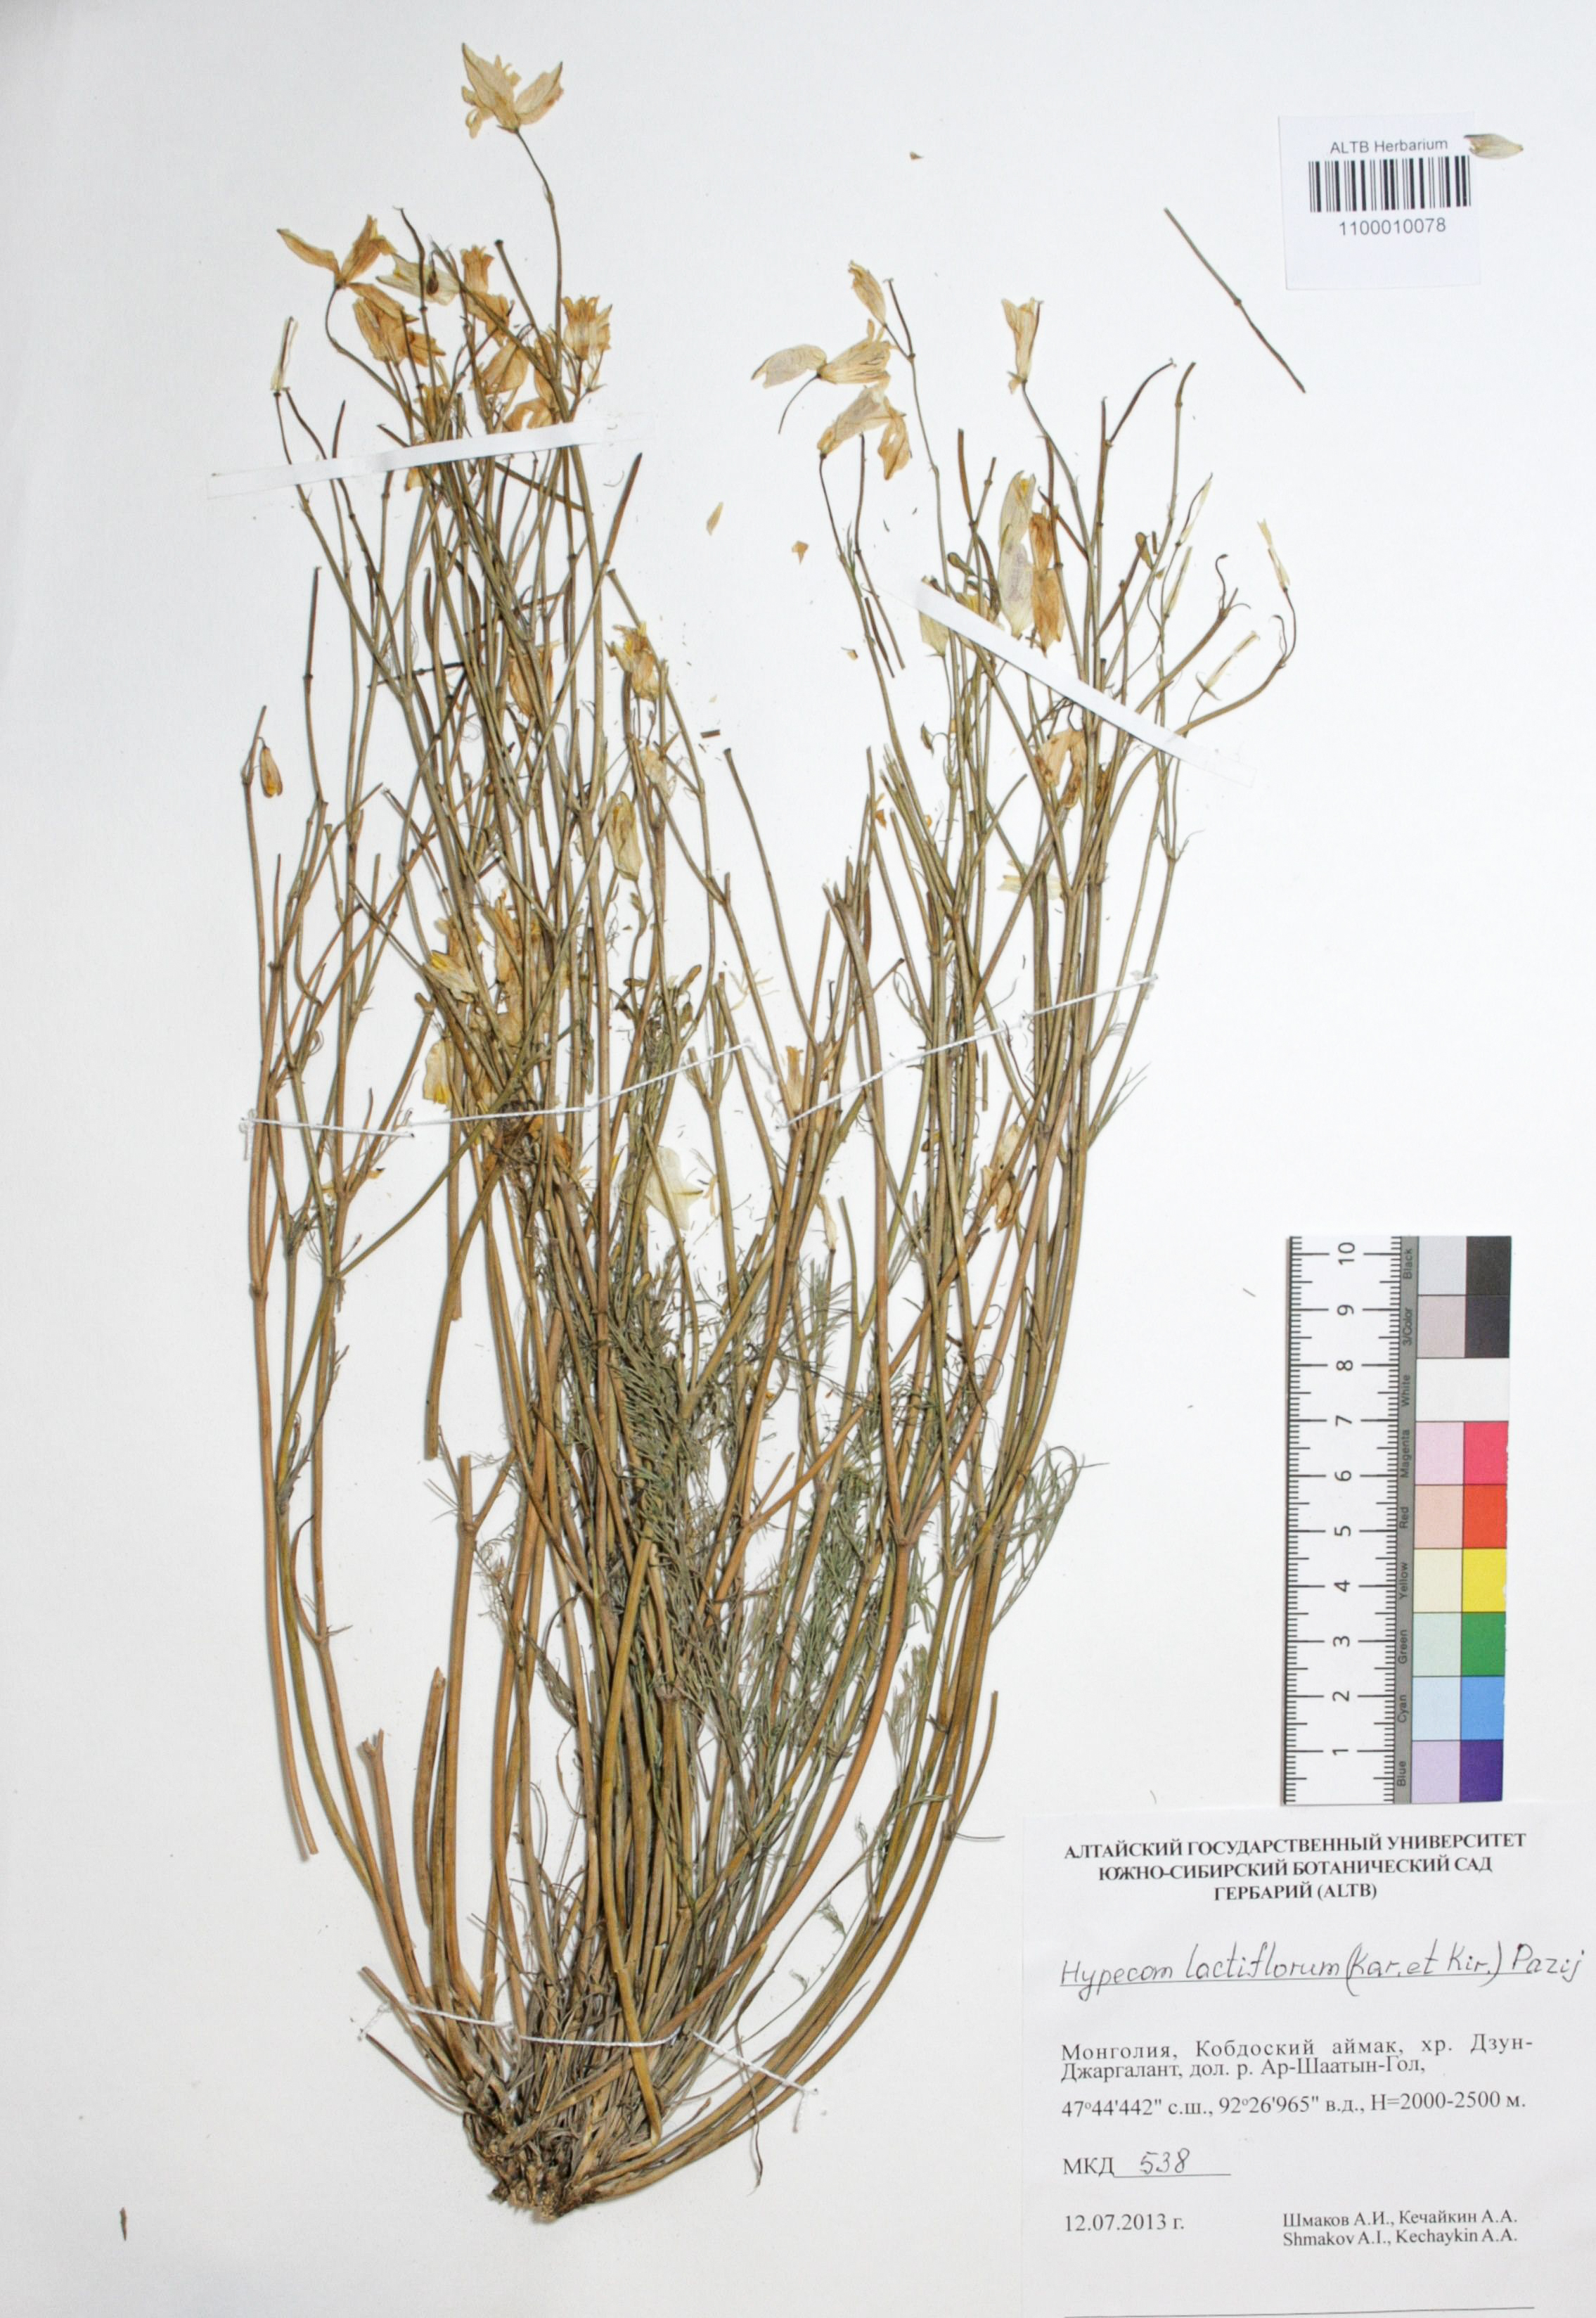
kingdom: Plantae
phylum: Tracheophyta
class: Magnoliopsida
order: Ranunculales
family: Papaveraceae
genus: Hypecoum
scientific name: Hypecoum lactiflorum
